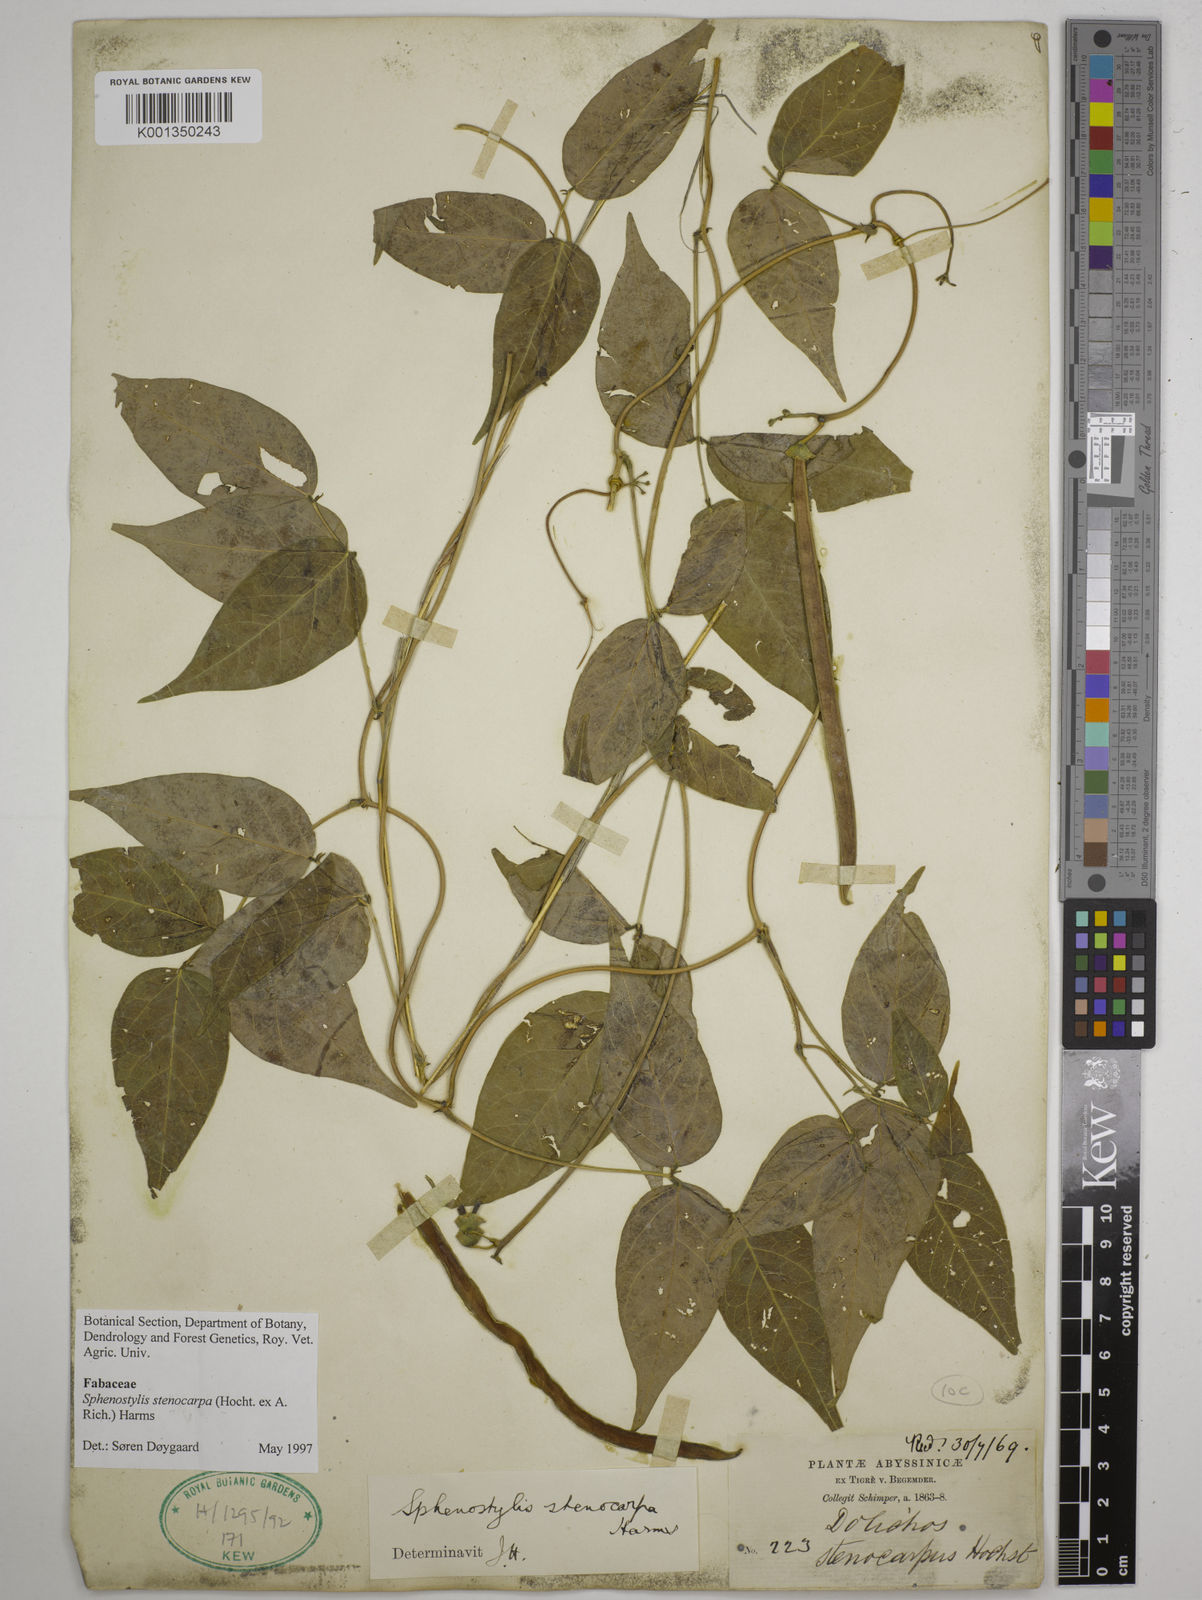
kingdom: Plantae
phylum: Tracheophyta
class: Magnoliopsida
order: Fabales
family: Fabaceae
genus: Sphenostylis
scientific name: Sphenostylis stenocarpa
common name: Yam-pea
